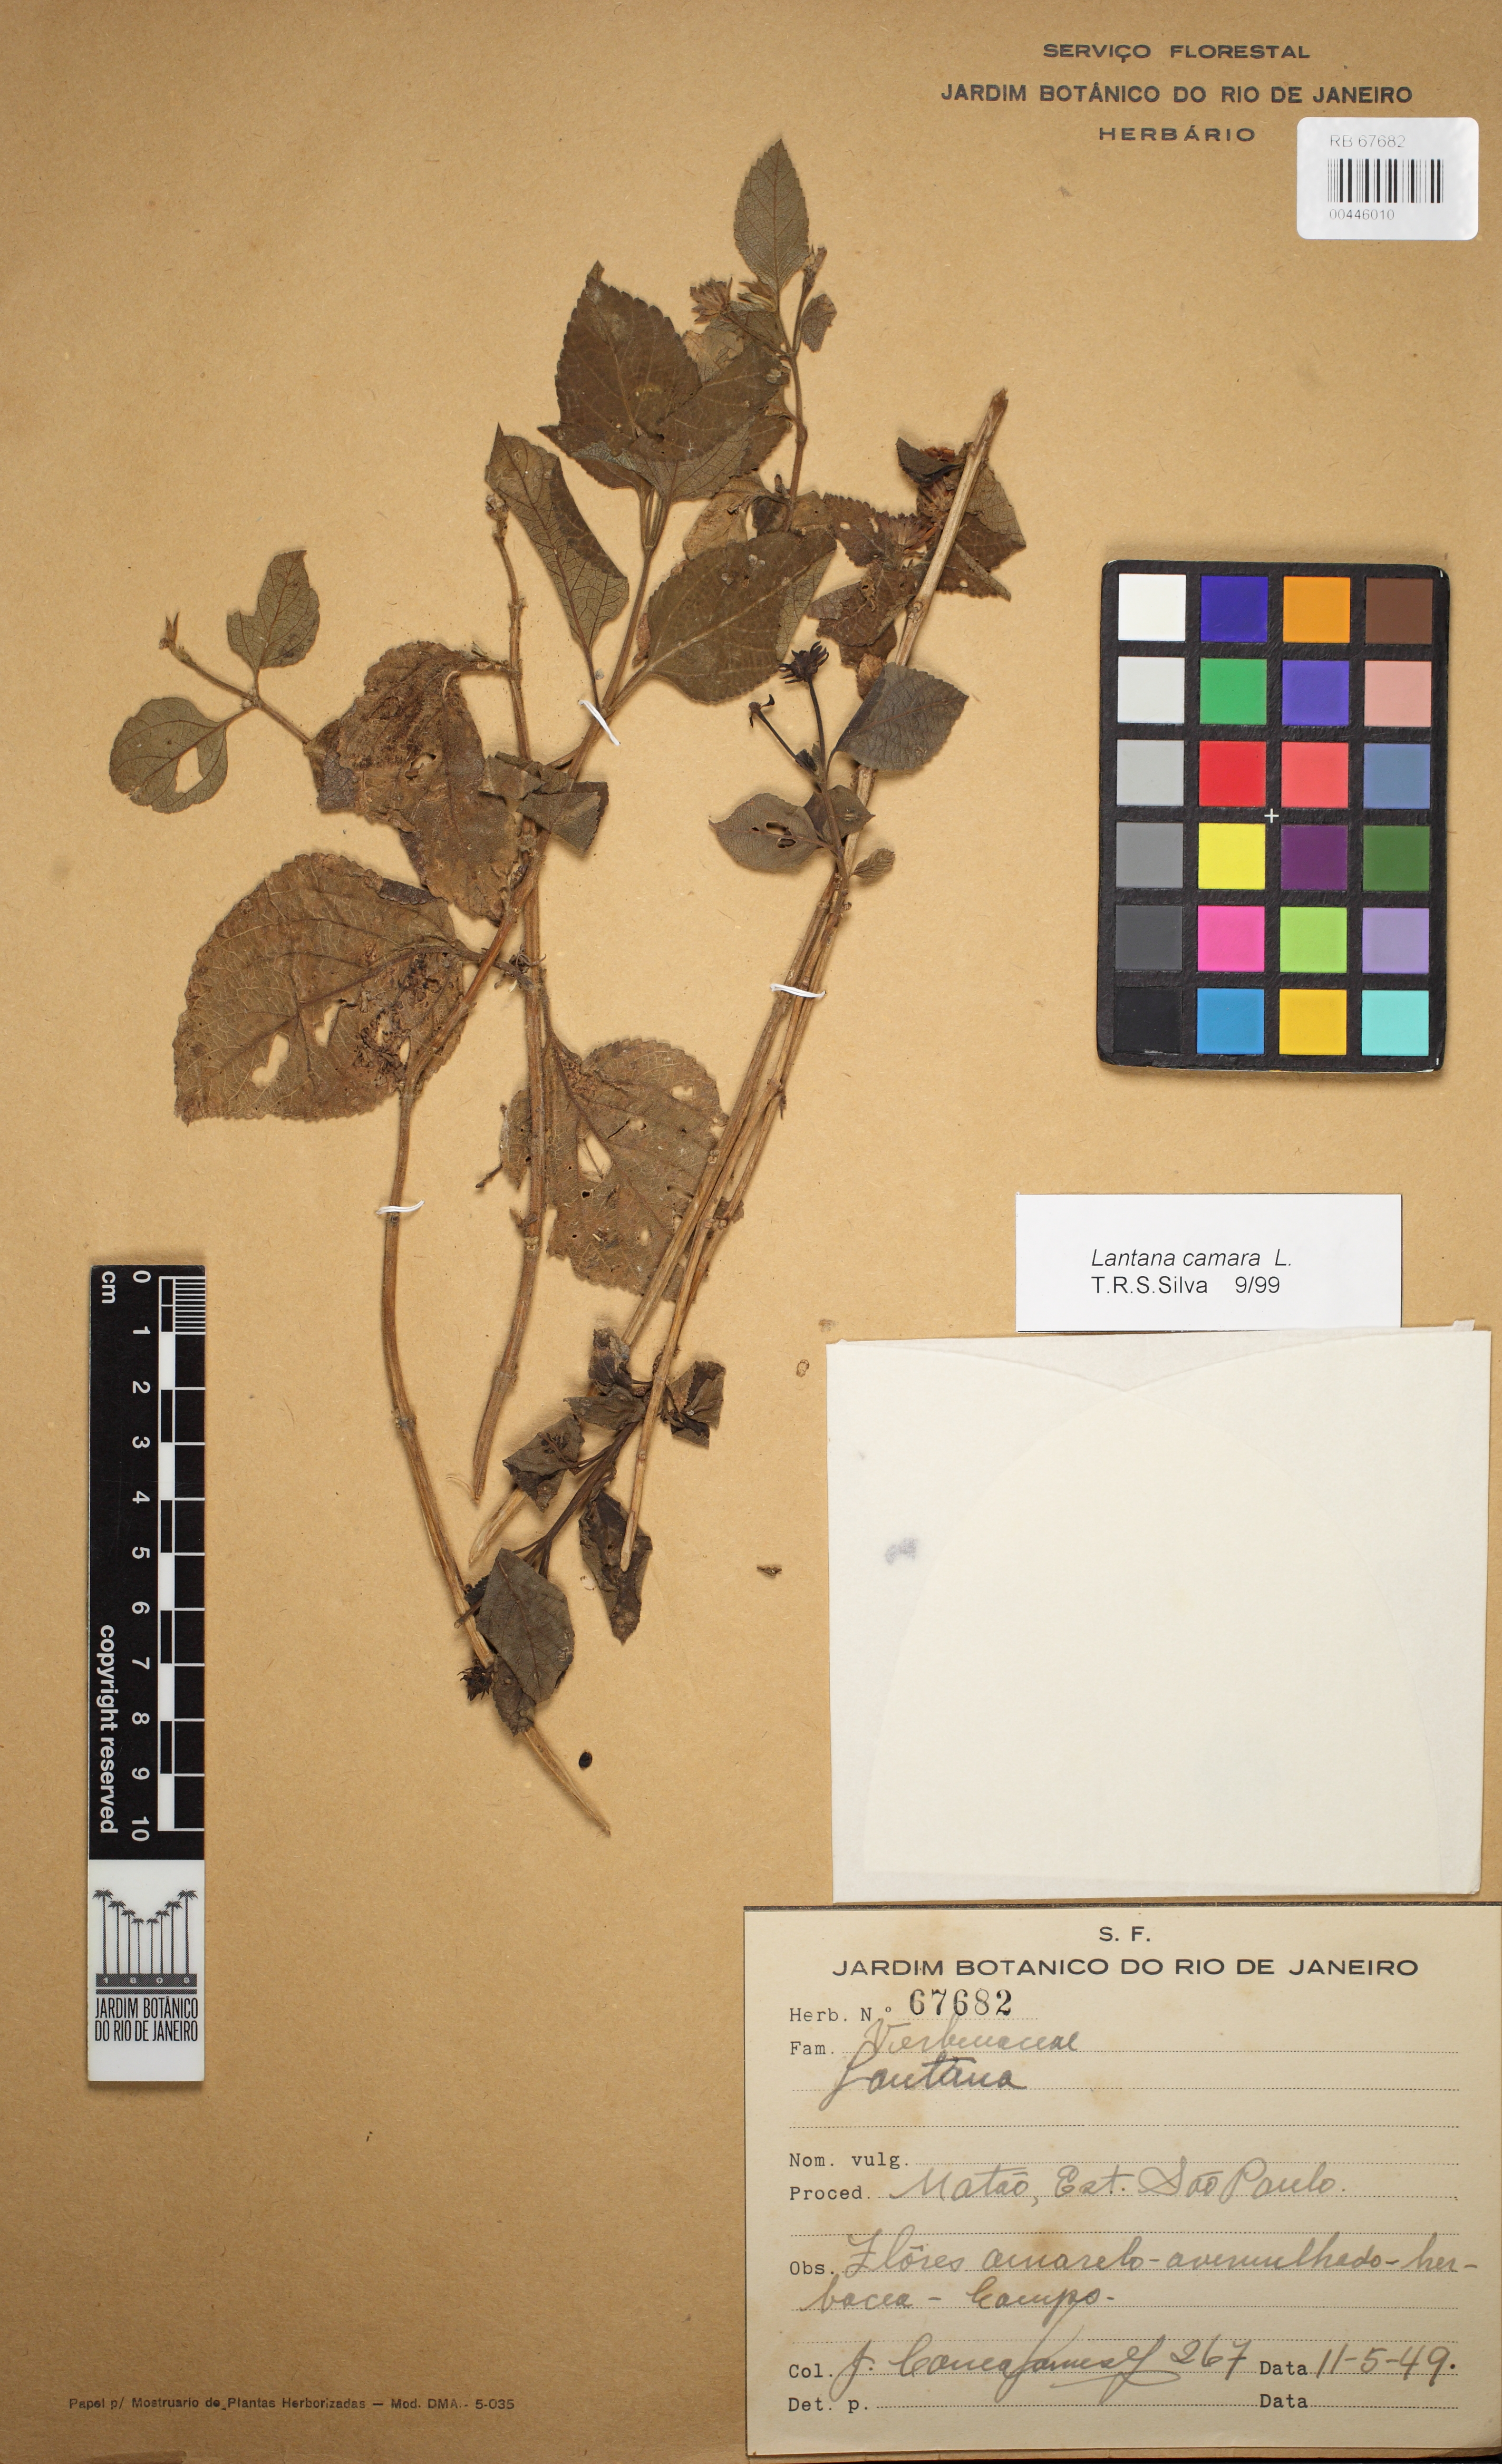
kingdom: Plantae
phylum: Tracheophyta
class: Magnoliopsida
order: Lamiales
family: Verbenaceae
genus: Lantana
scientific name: Lantana camara
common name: Lantana
